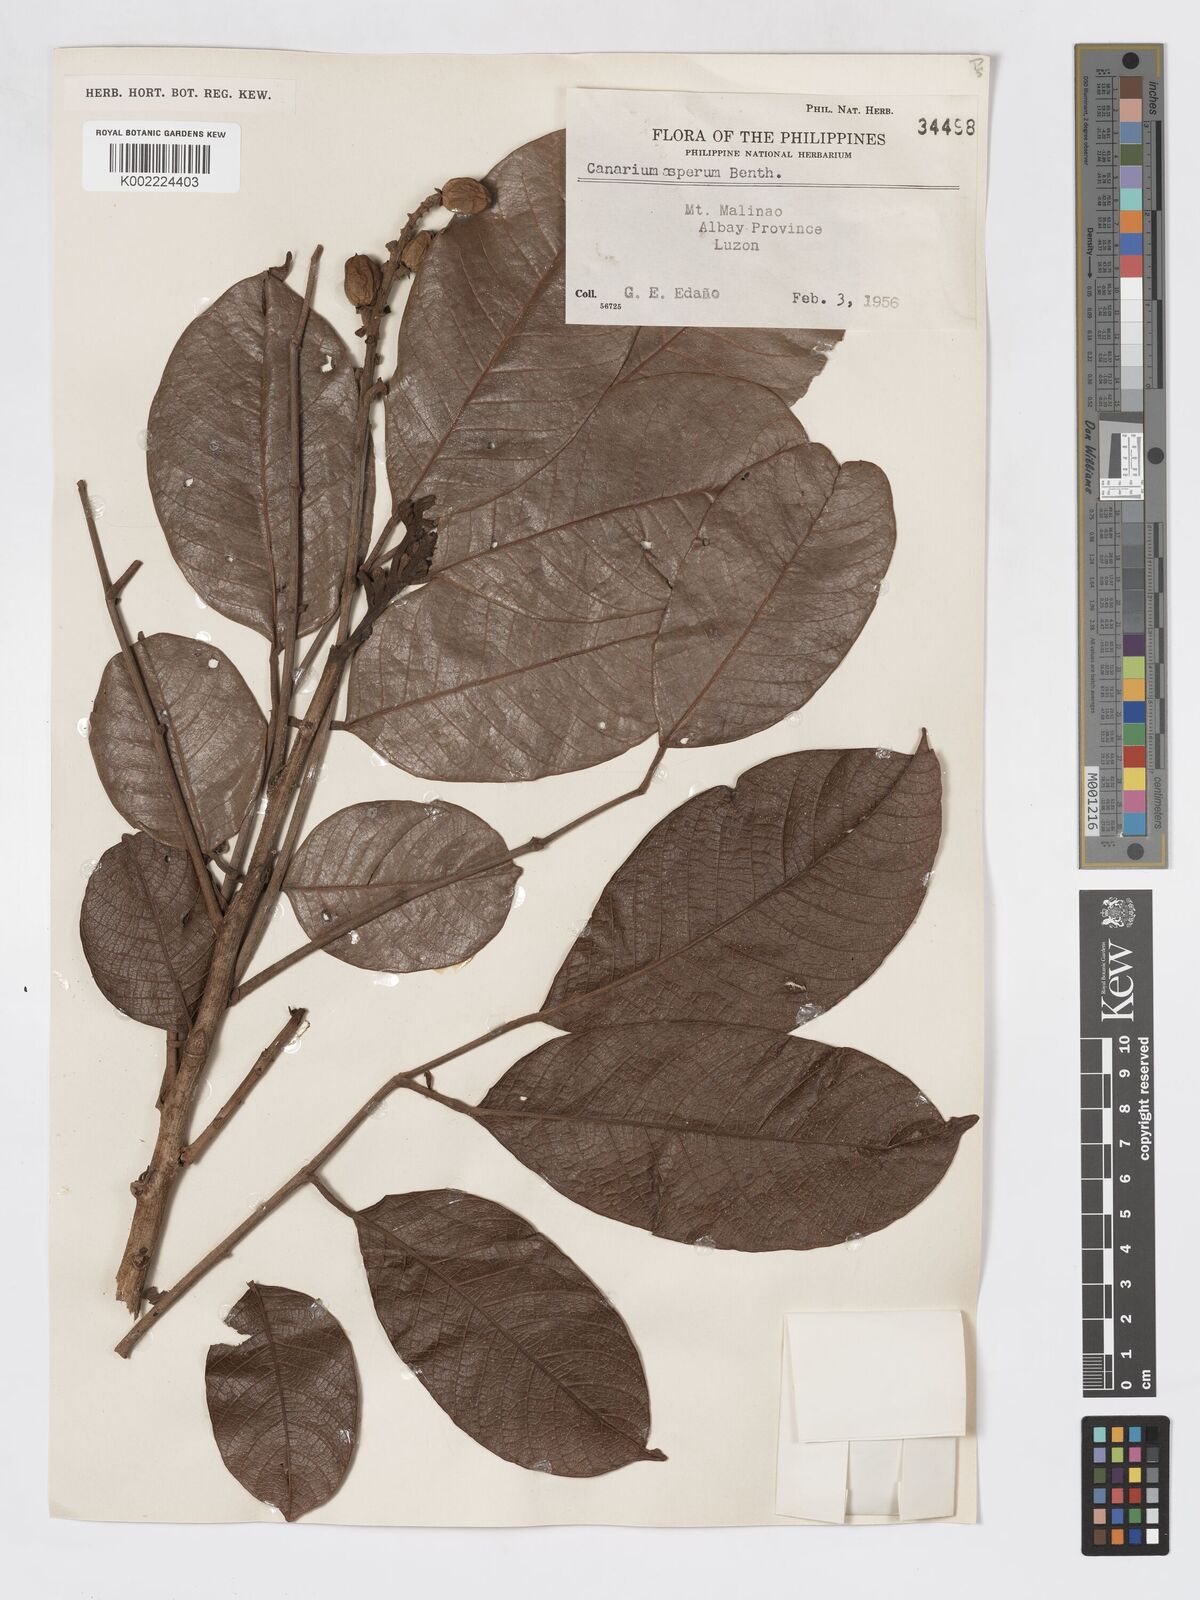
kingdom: Plantae
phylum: Tracheophyta
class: Magnoliopsida
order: Sapindales
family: Burseraceae
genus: Canarium
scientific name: Canarium asperum
